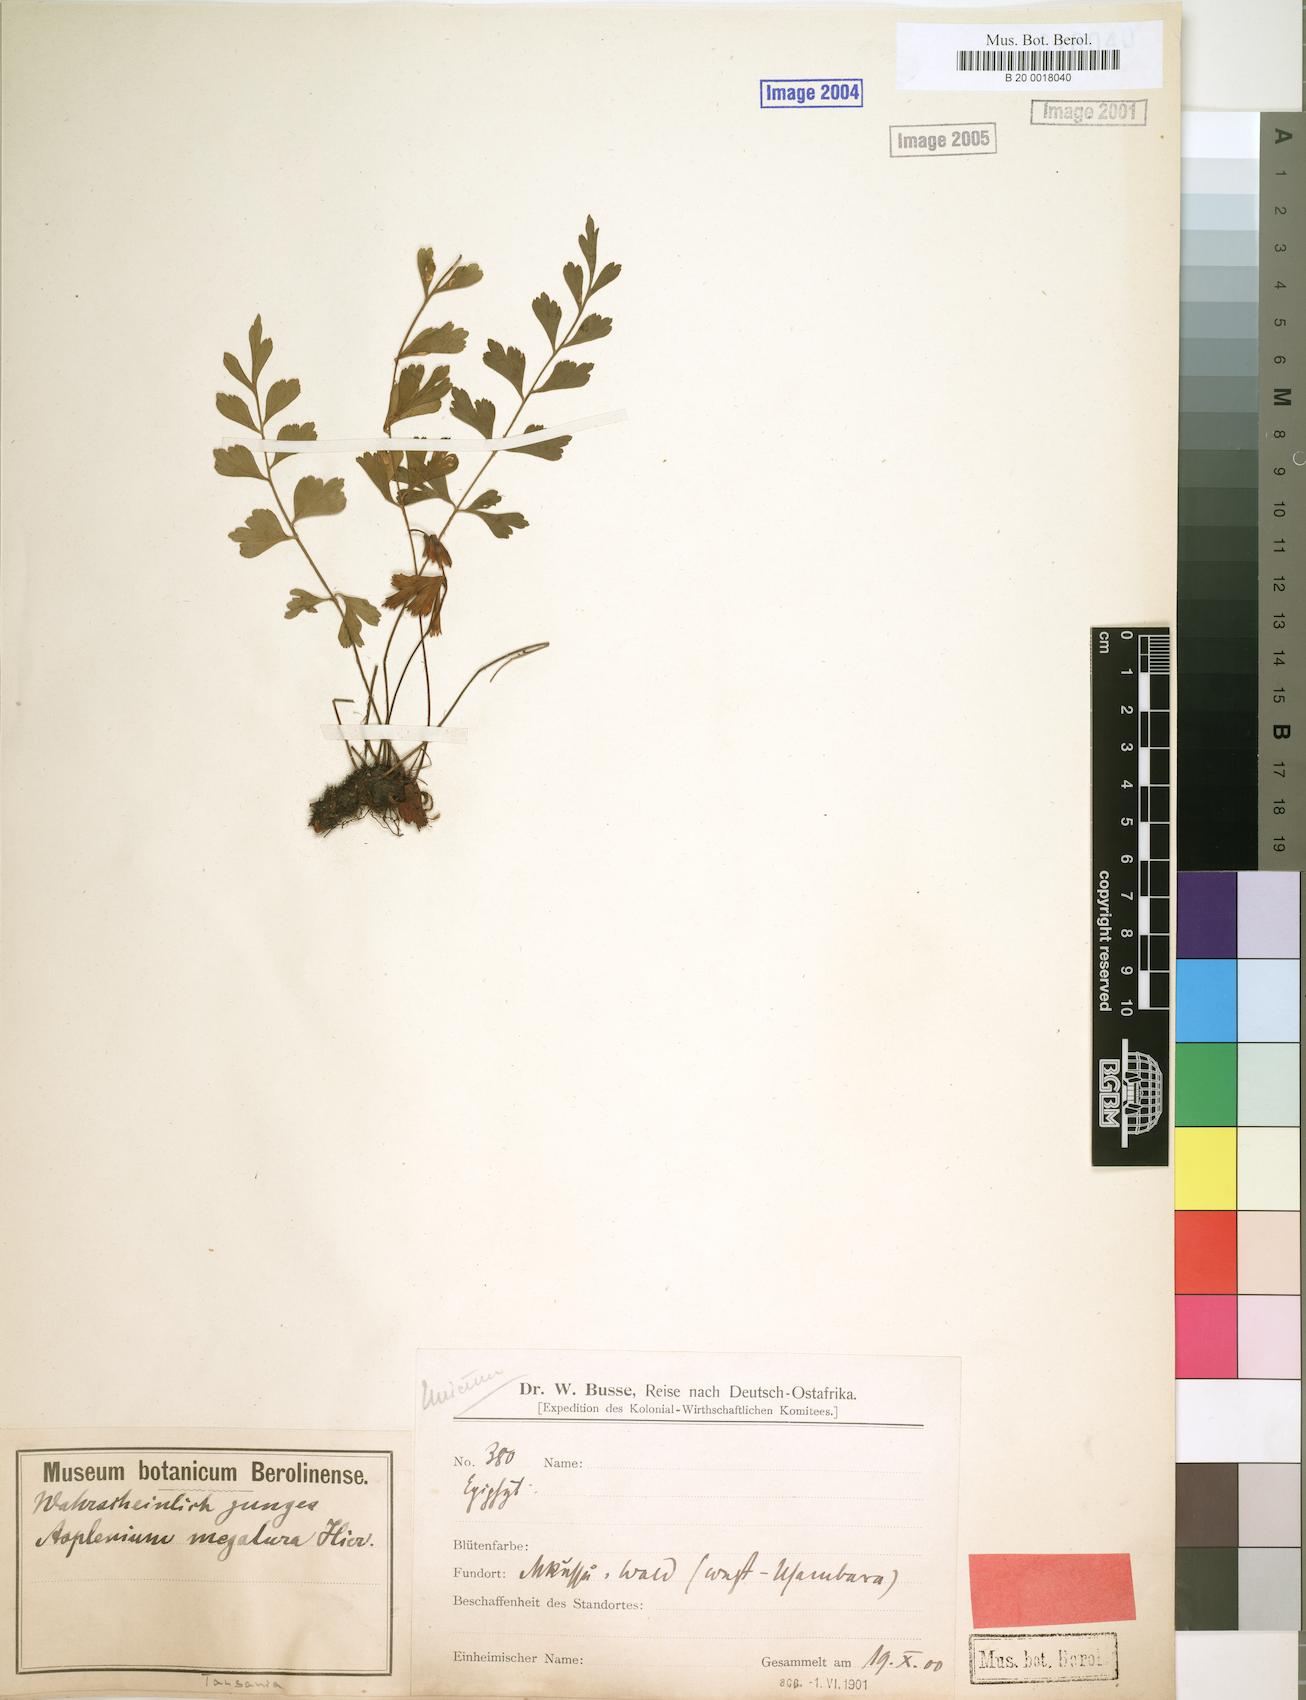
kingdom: Plantae
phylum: Tracheophyta
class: Polypodiopsida
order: Polypodiales
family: Aspleniaceae
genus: Asplenium
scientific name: Asplenium megalura
